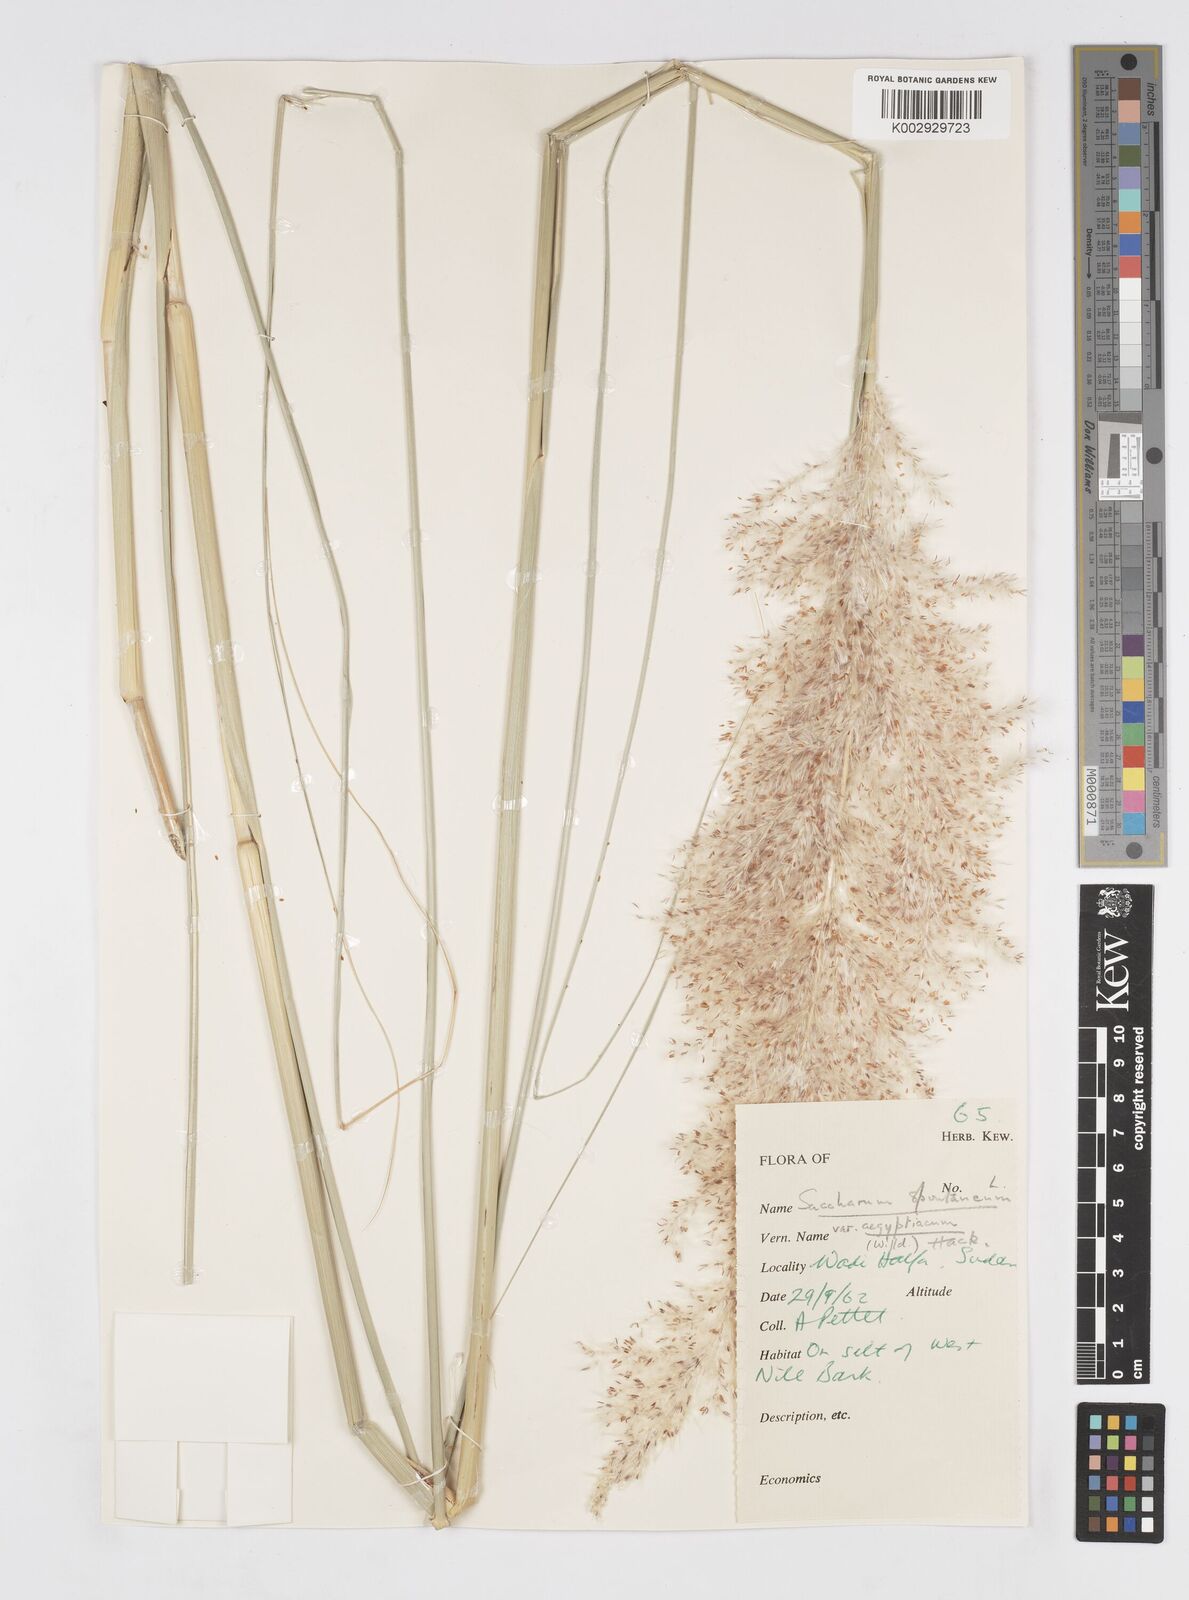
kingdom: Plantae
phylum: Tracheophyta
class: Liliopsida
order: Poales
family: Poaceae
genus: Saccharum
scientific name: Saccharum spontaneum
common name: Wild sugarcane
